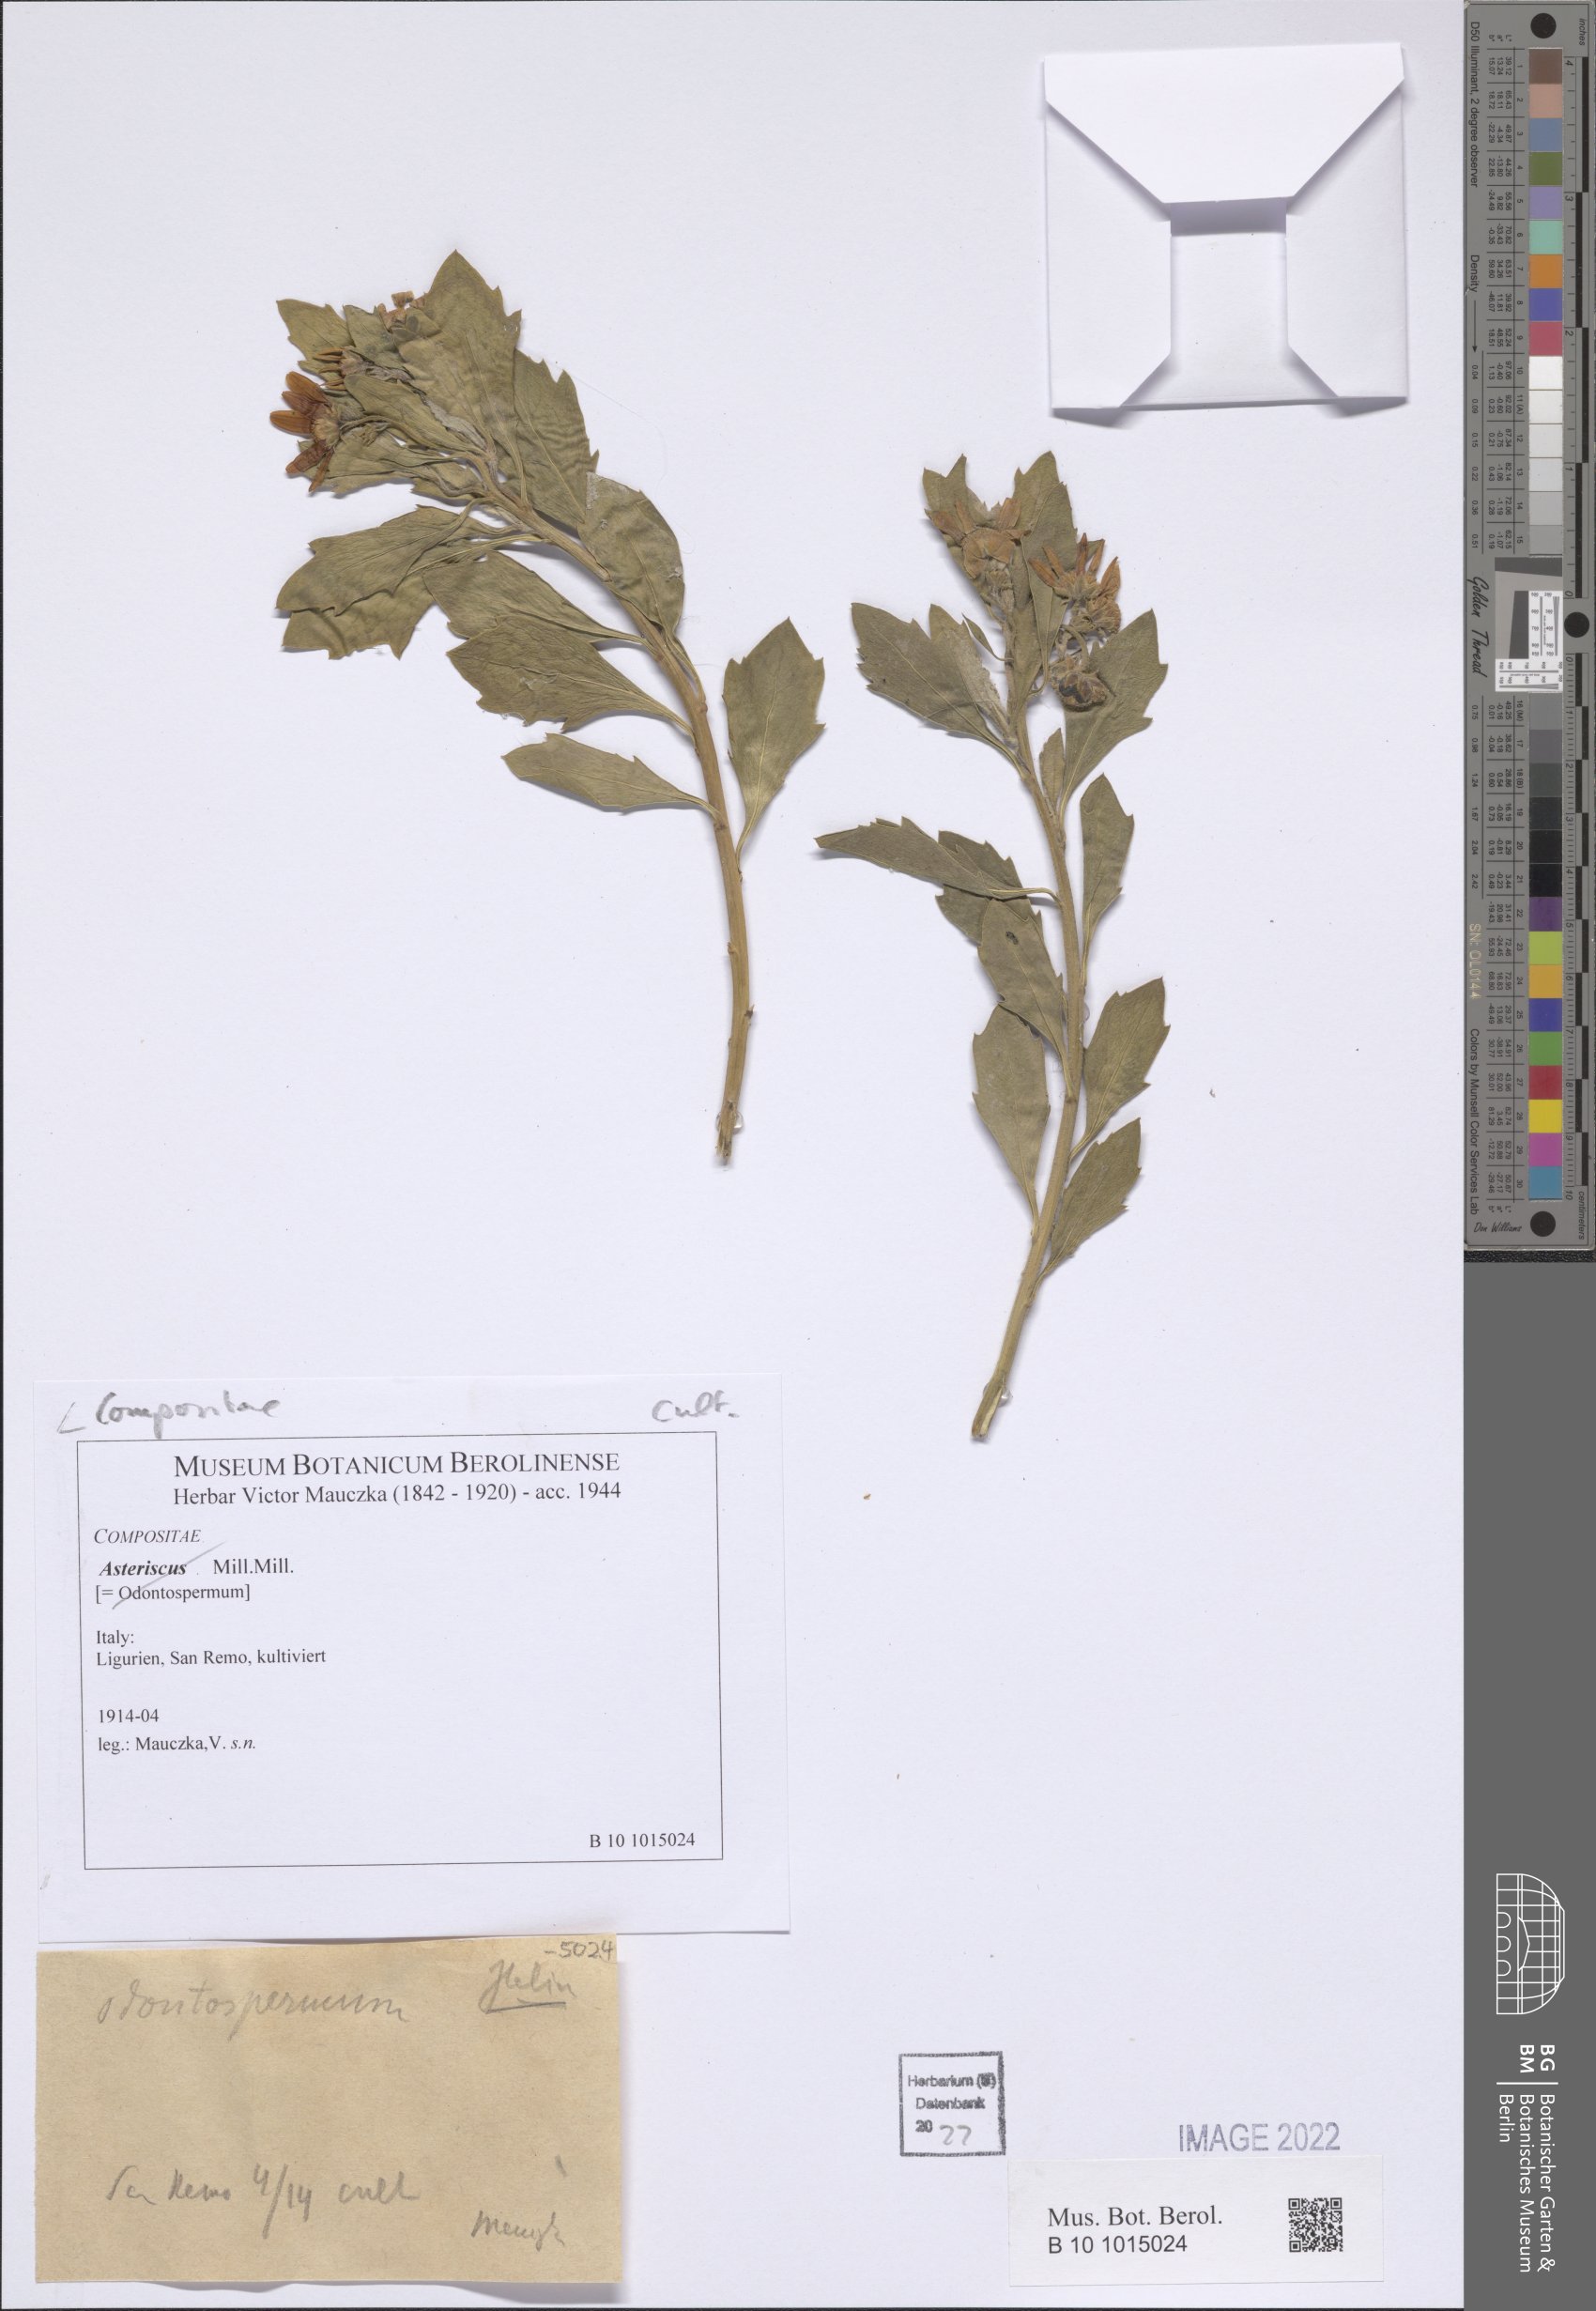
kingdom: Plantae
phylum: Tracheophyta
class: Magnoliopsida
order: Asterales
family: Asteraceae
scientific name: Asteraceae
